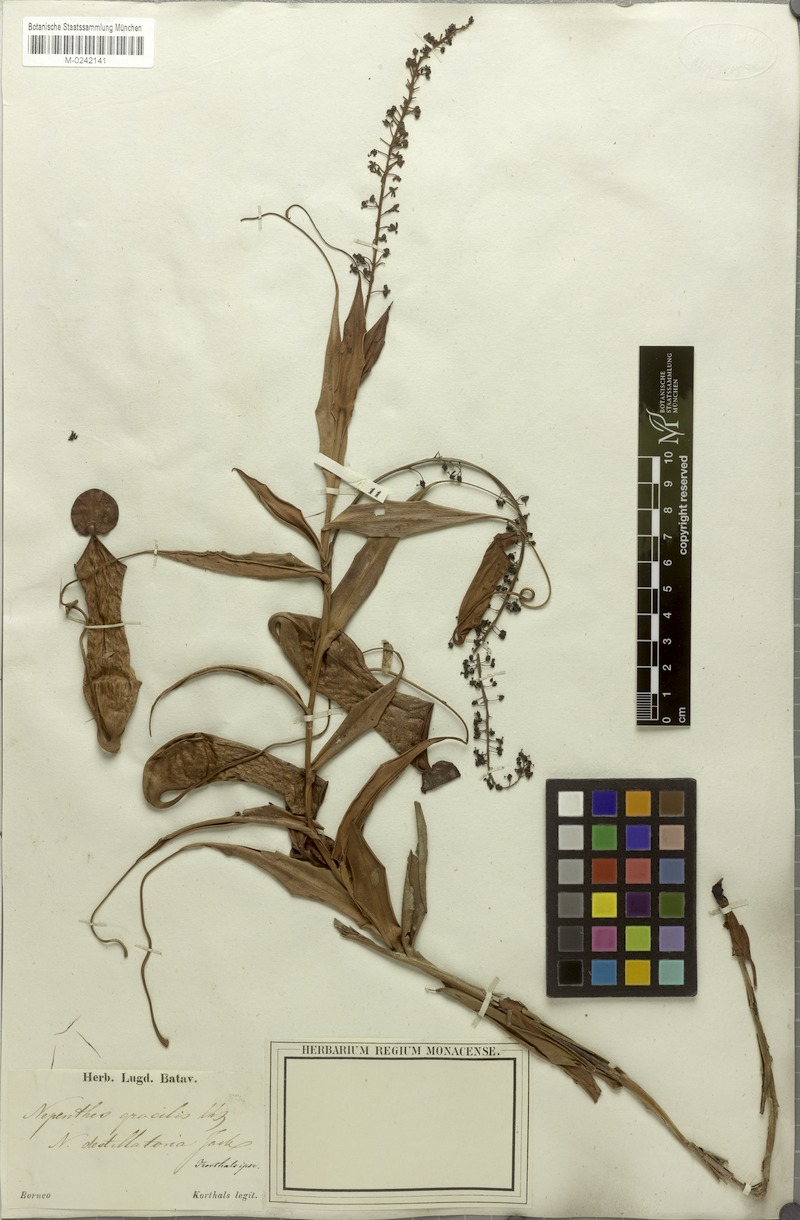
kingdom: Plantae
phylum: Tracheophyta
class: Magnoliopsida
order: Caryophyllales
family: Nepenthaceae
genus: Nepenthes
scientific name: Nepenthes gracilis
